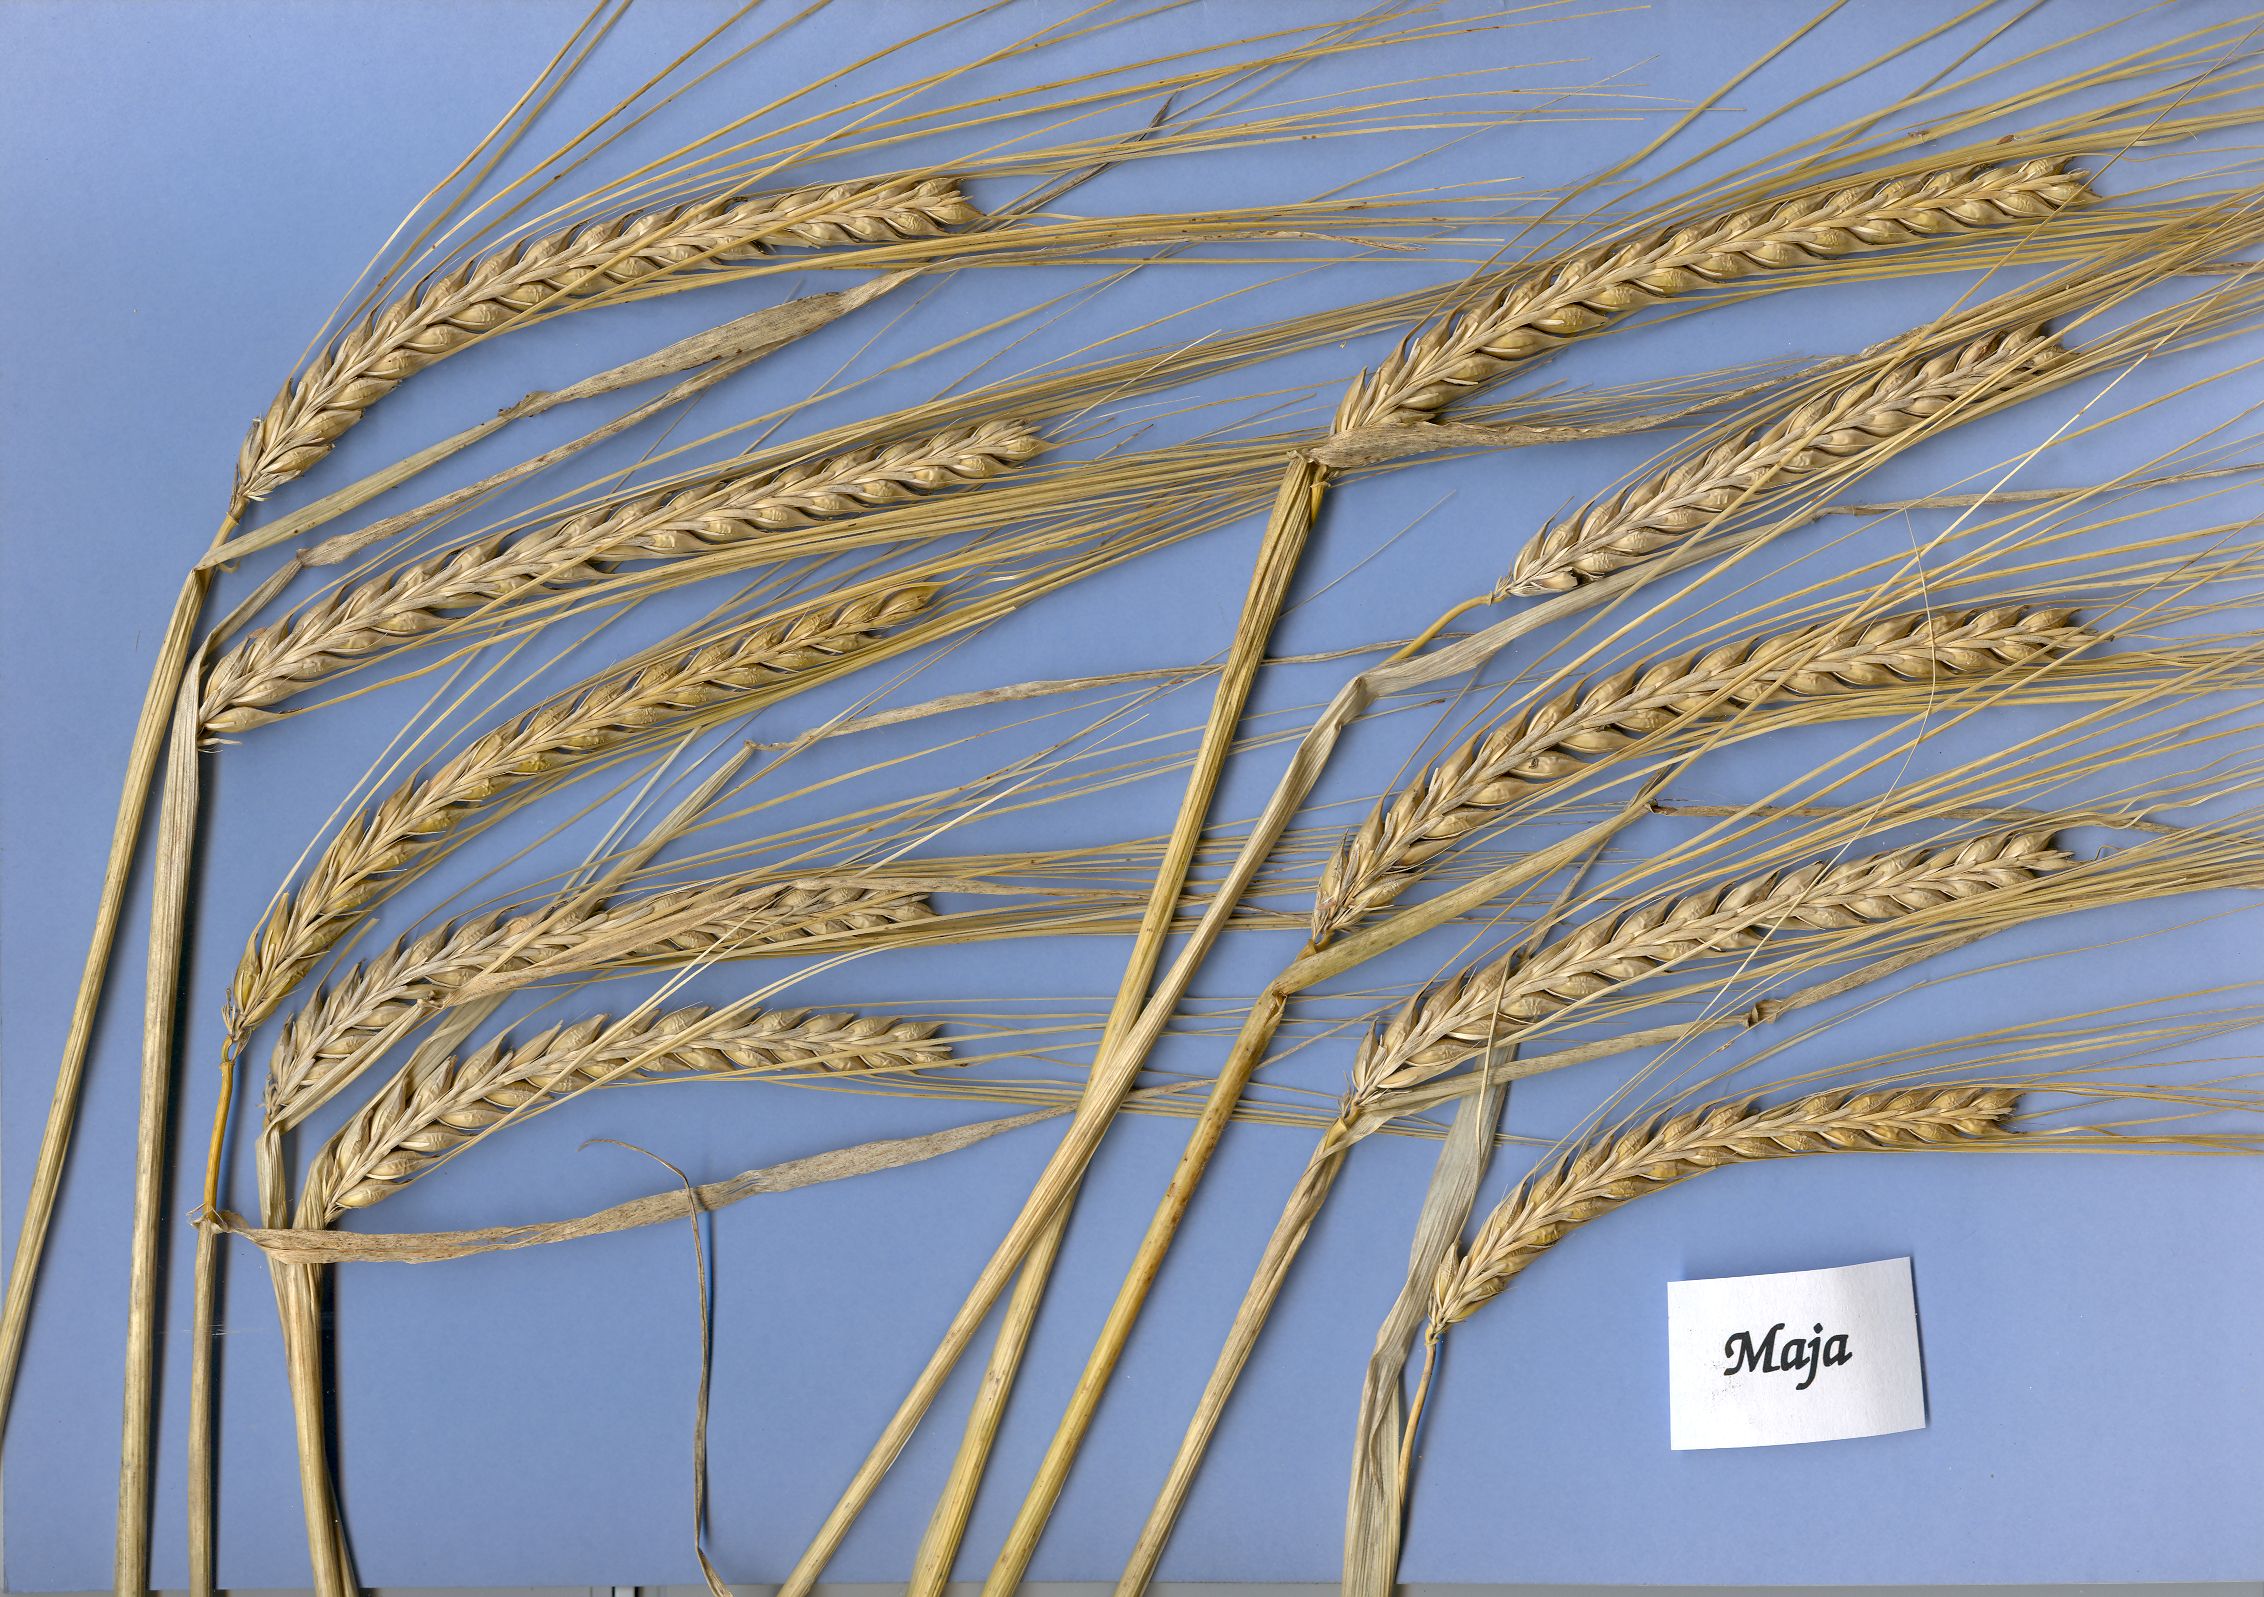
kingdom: Plantae
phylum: Tracheophyta
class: Liliopsida
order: Poales
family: Poaceae
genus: Hordeum
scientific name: Hordeum vulgare
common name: Common barley
